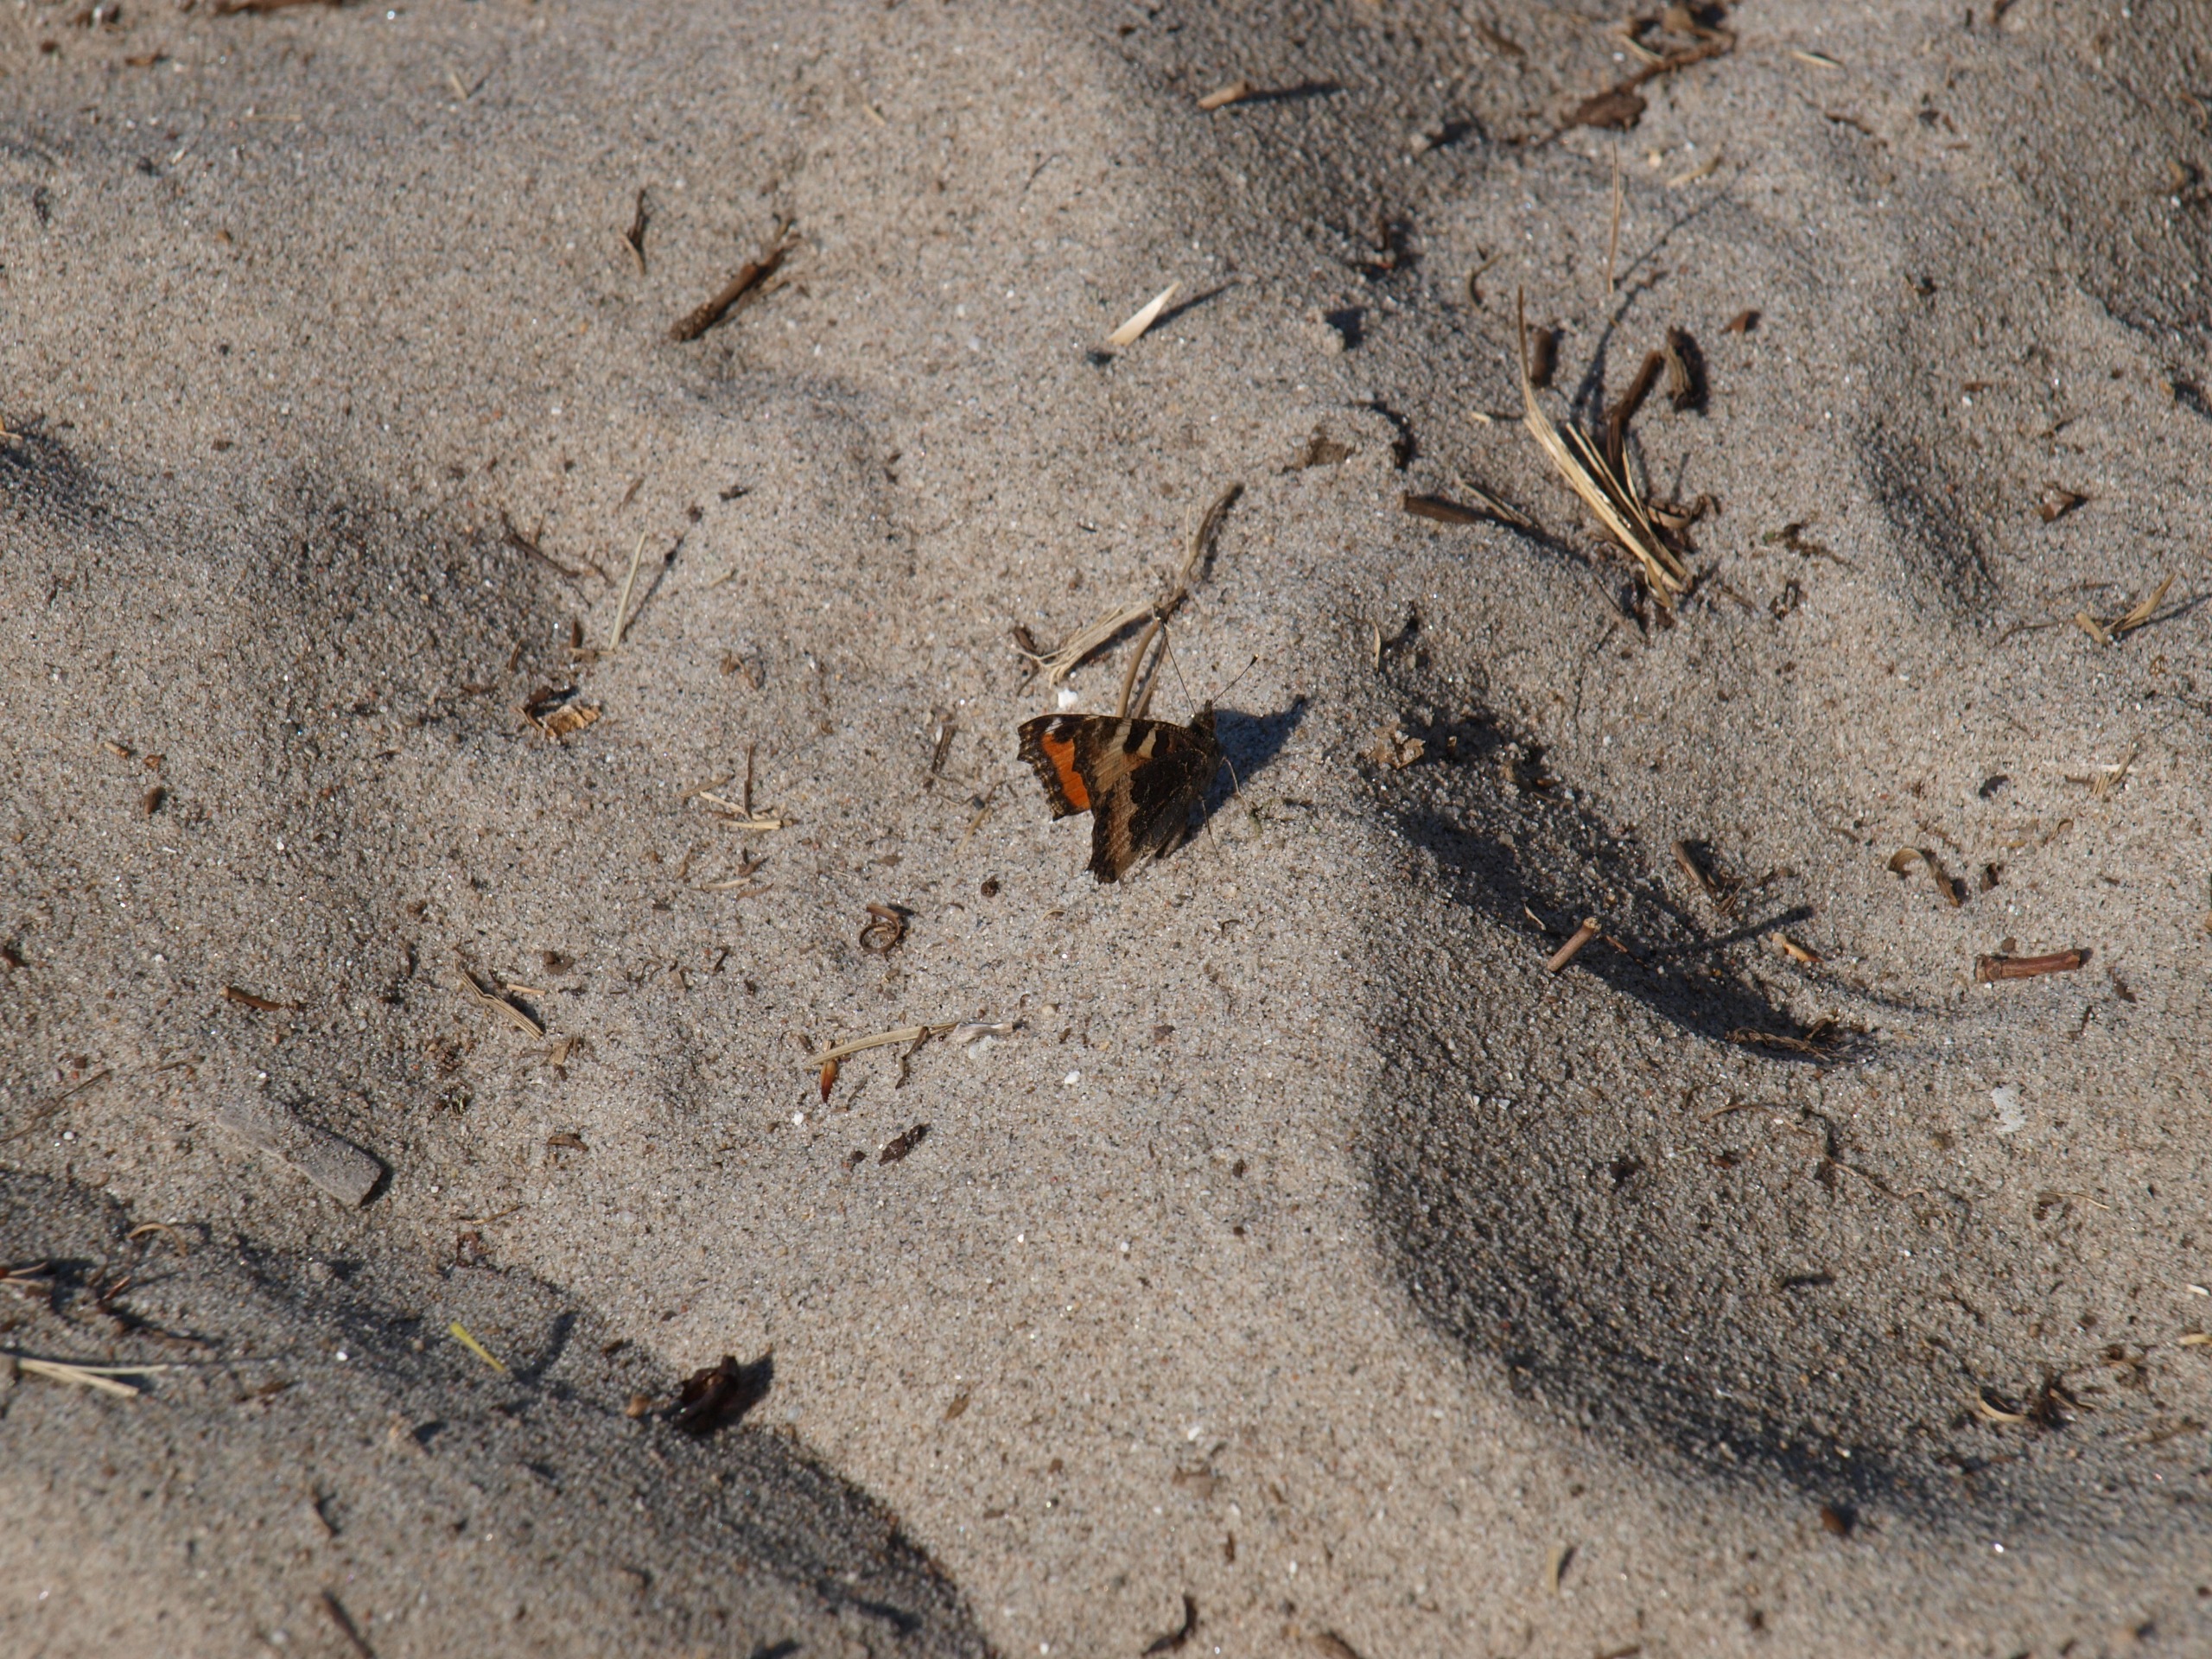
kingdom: Animalia
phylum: Arthropoda
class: Insecta
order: Lepidoptera
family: Nymphalidae
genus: Aglais
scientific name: Aglais urticae
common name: Nældens takvinge
